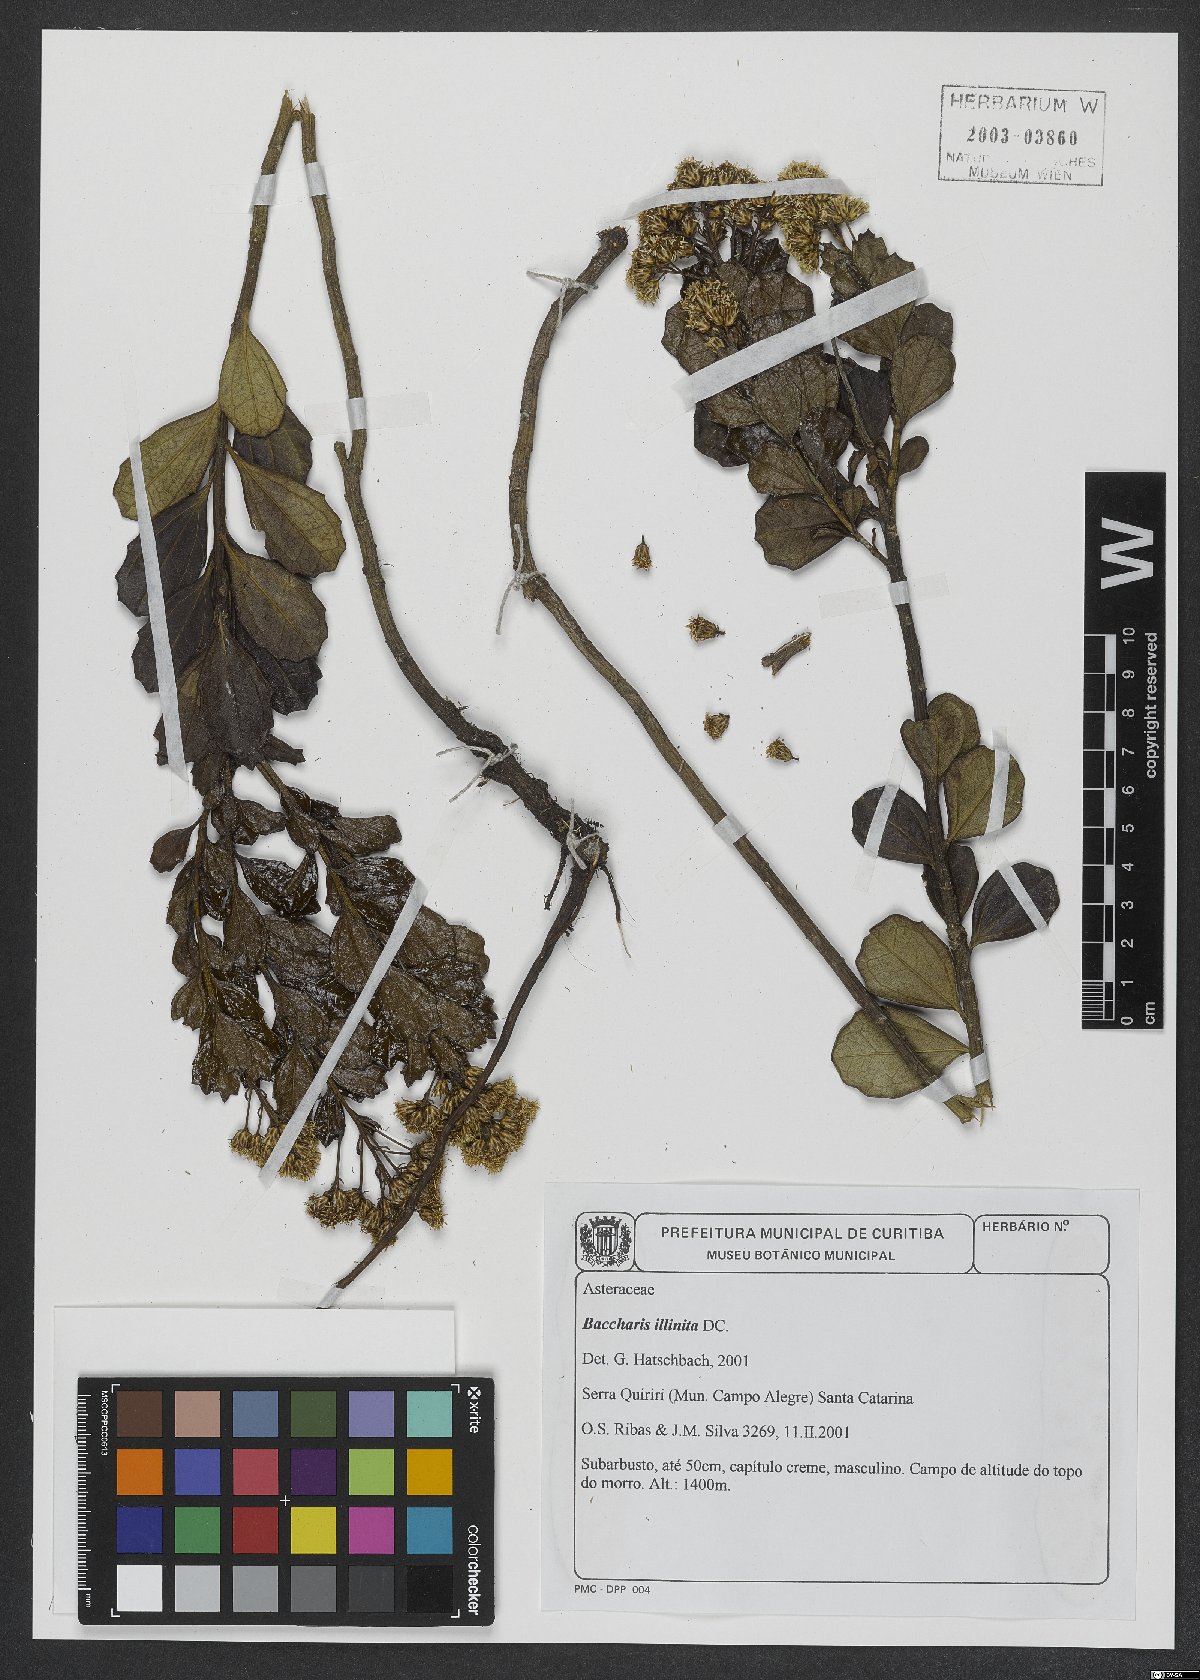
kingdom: Plantae
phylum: Tracheophyta
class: Magnoliopsida
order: Asterales
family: Asteraceae
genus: Baccharis
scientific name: Baccharis tridentata
